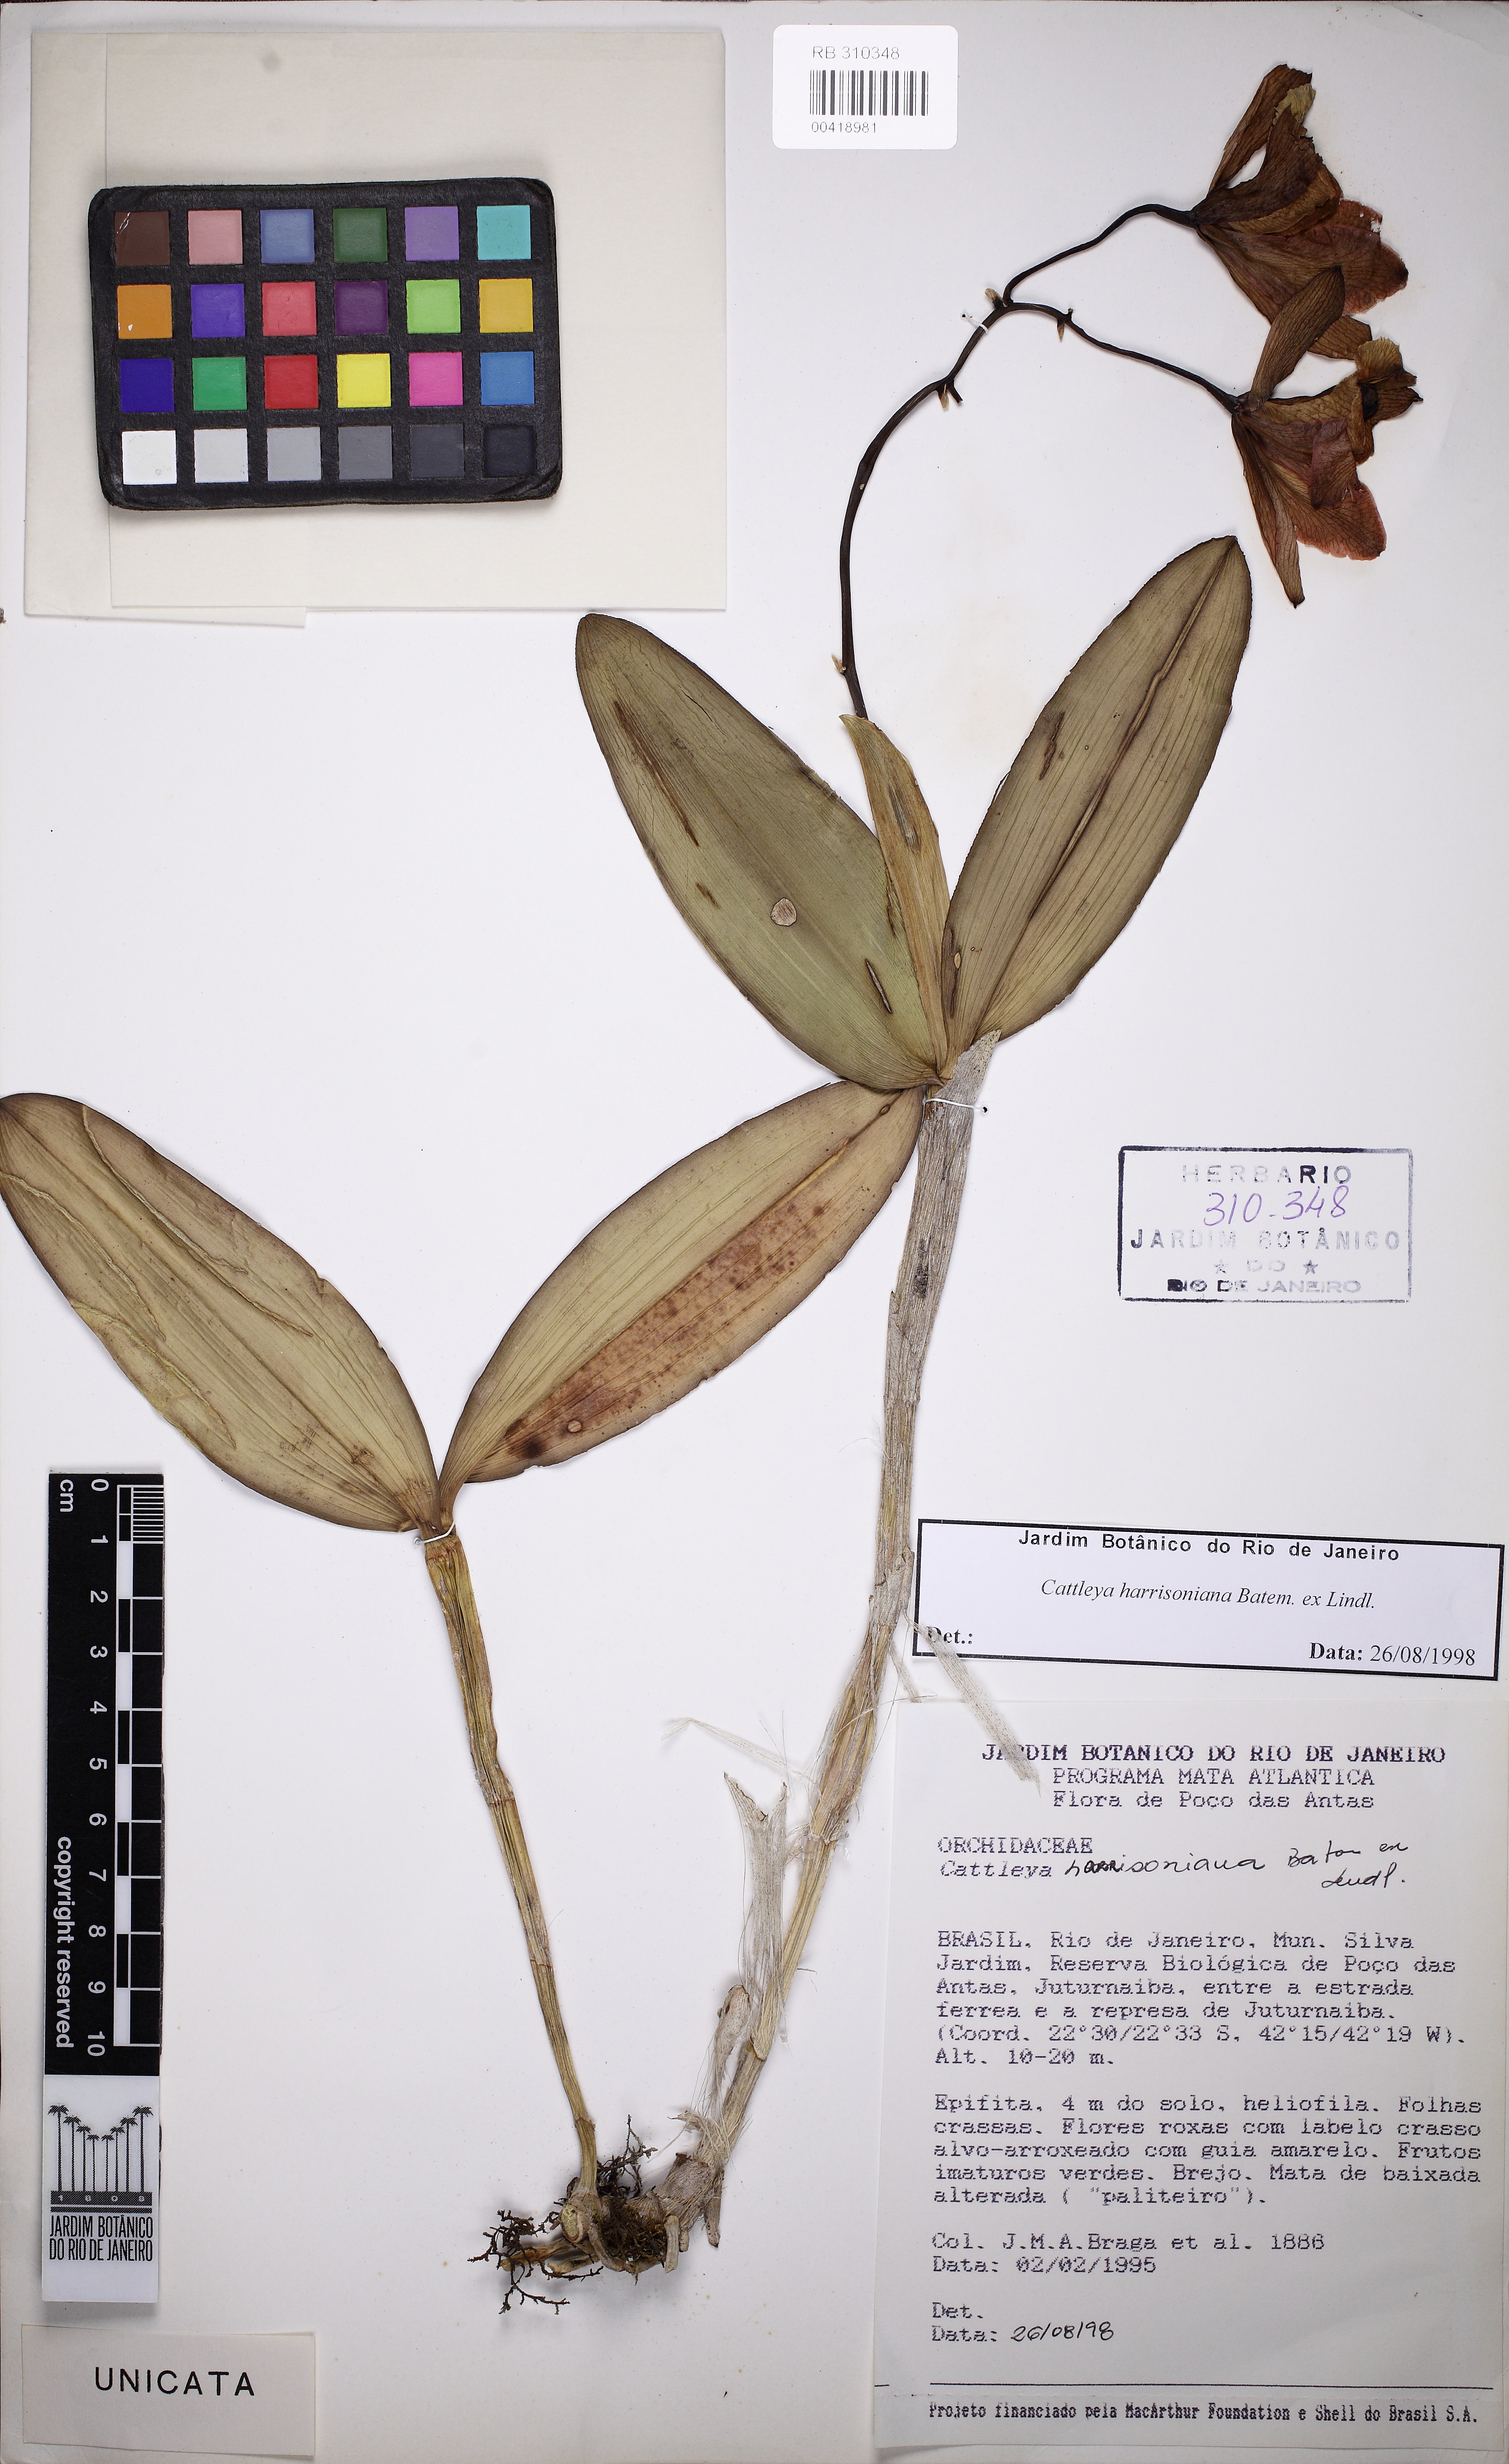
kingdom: Plantae
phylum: Tracheophyta
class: Liliopsida
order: Asparagales
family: Orchidaceae
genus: Cattleya
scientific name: Cattleya harrisoniana
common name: Harrison's cattleya
